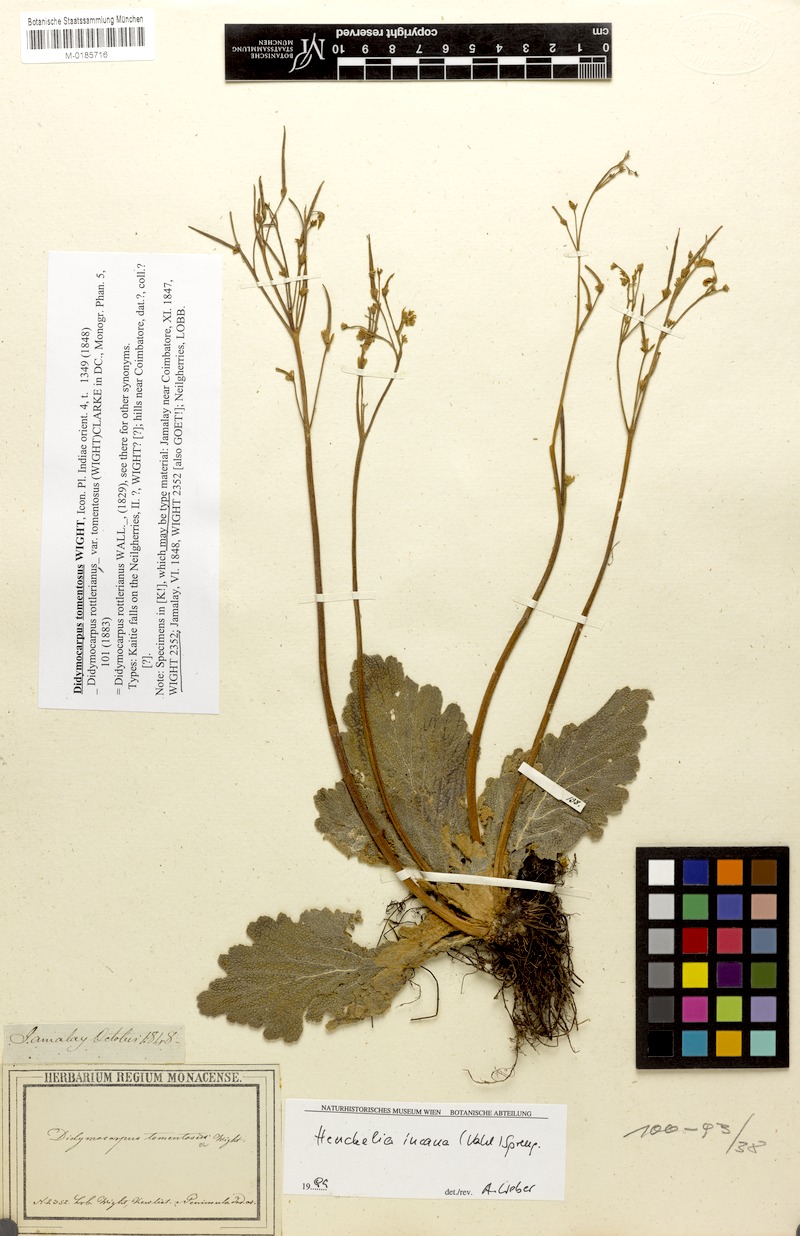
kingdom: Plantae
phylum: Tracheophyta
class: Magnoliopsida
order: Lamiales
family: Gesneriaceae
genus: Henckelia
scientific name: Henckelia incana
